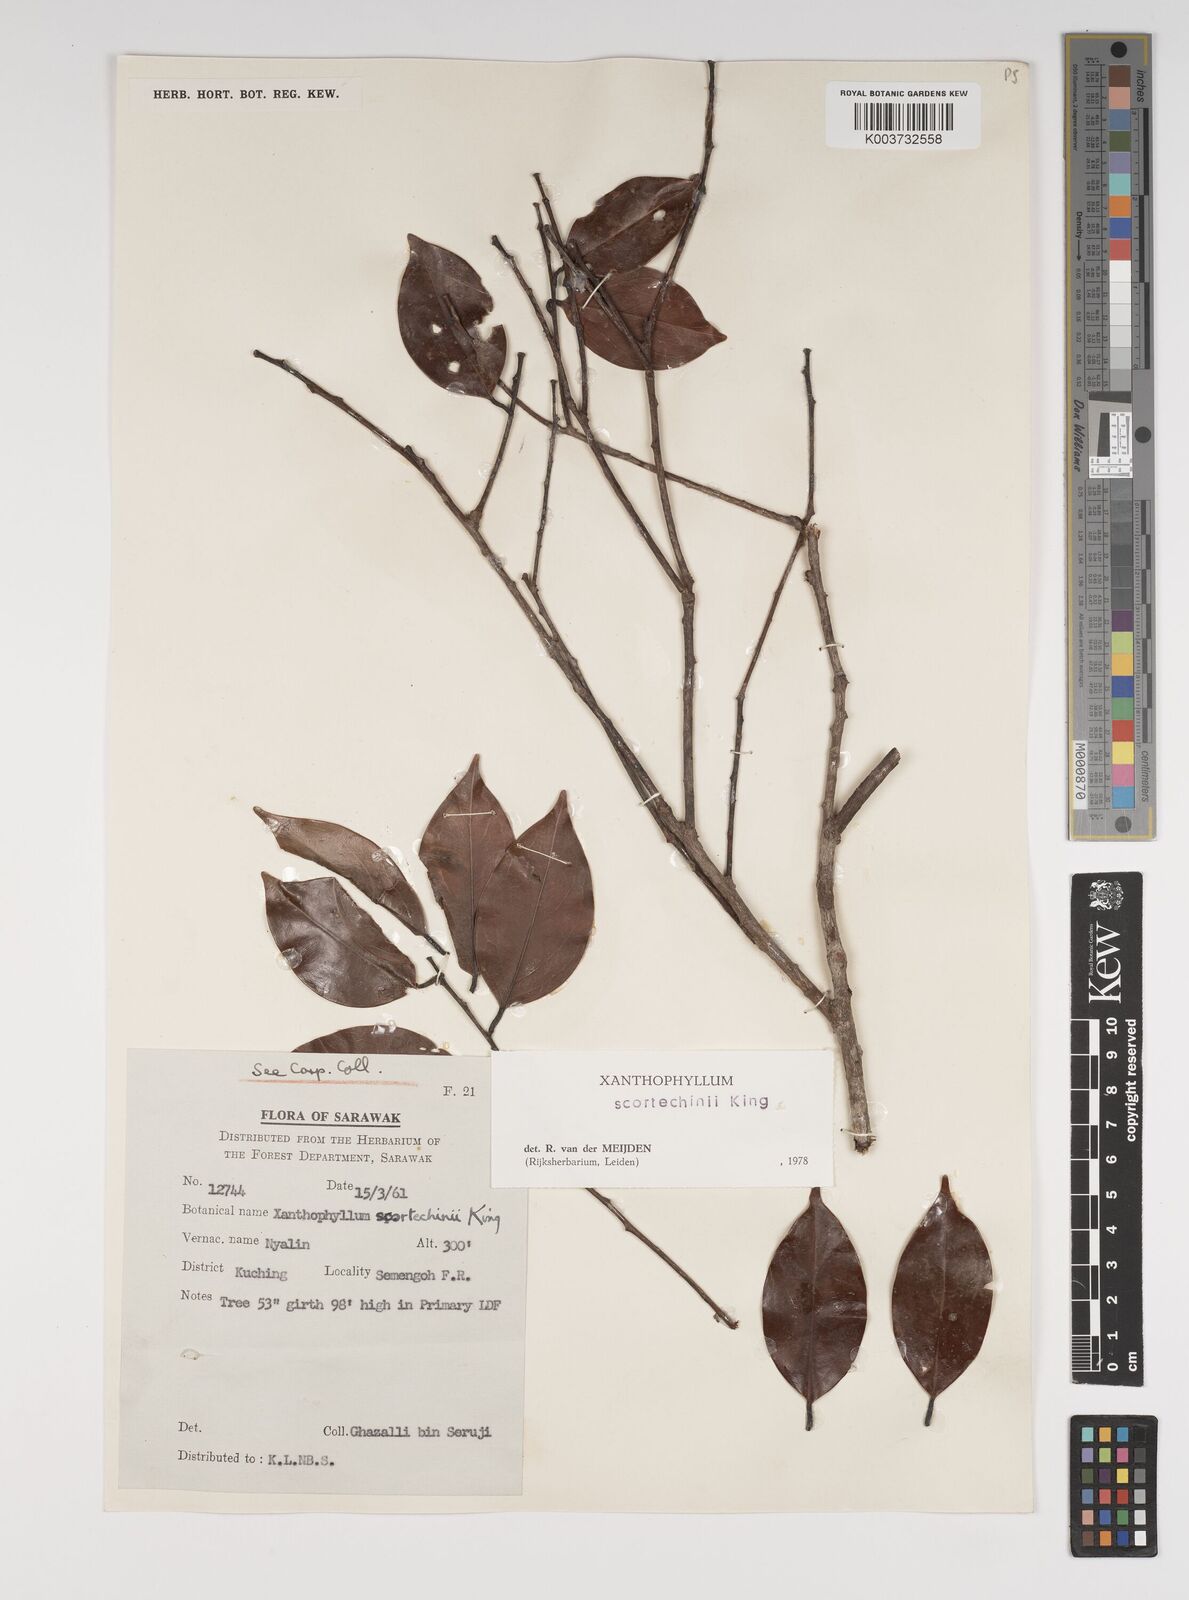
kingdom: Plantae
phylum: Tracheophyta
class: Magnoliopsida
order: Fabales
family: Polygalaceae
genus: Xanthophyllum
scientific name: Xanthophyllum obscurum
